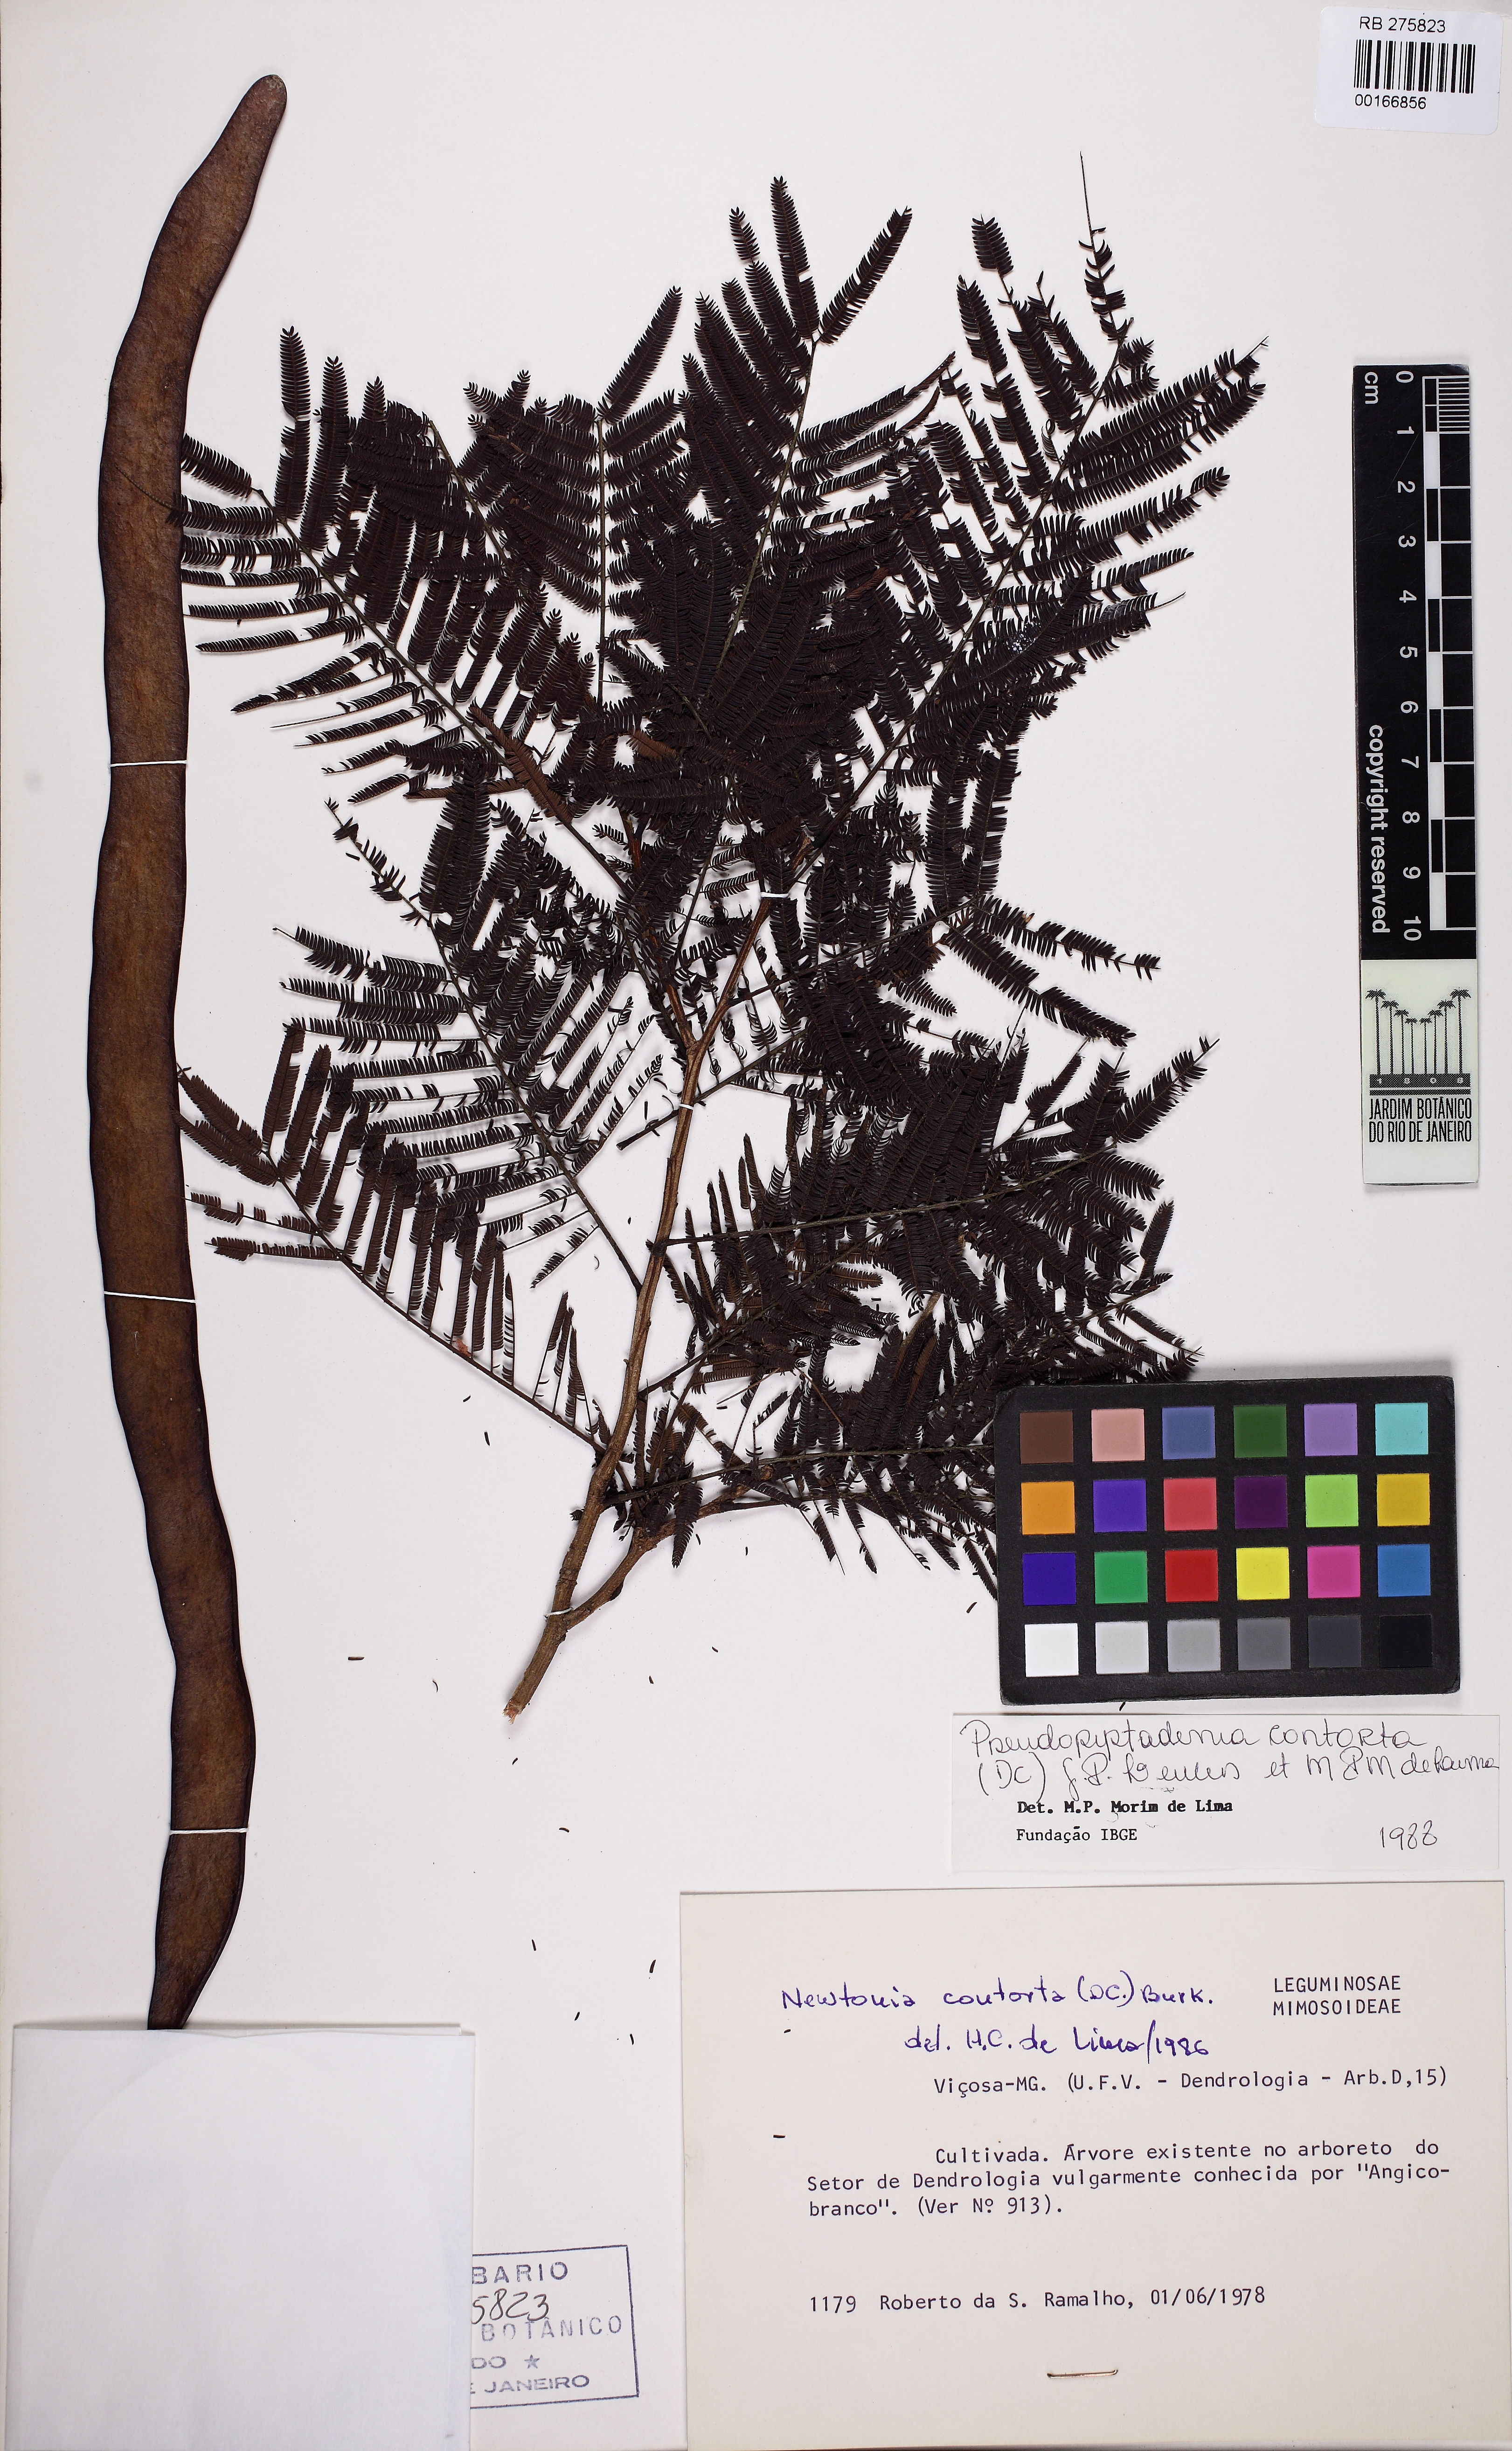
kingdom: Plantae
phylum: Tracheophyta
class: Magnoliopsida
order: Fabales
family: Fabaceae
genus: Pseudopiptadenia
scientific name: Pseudopiptadenia contorta
